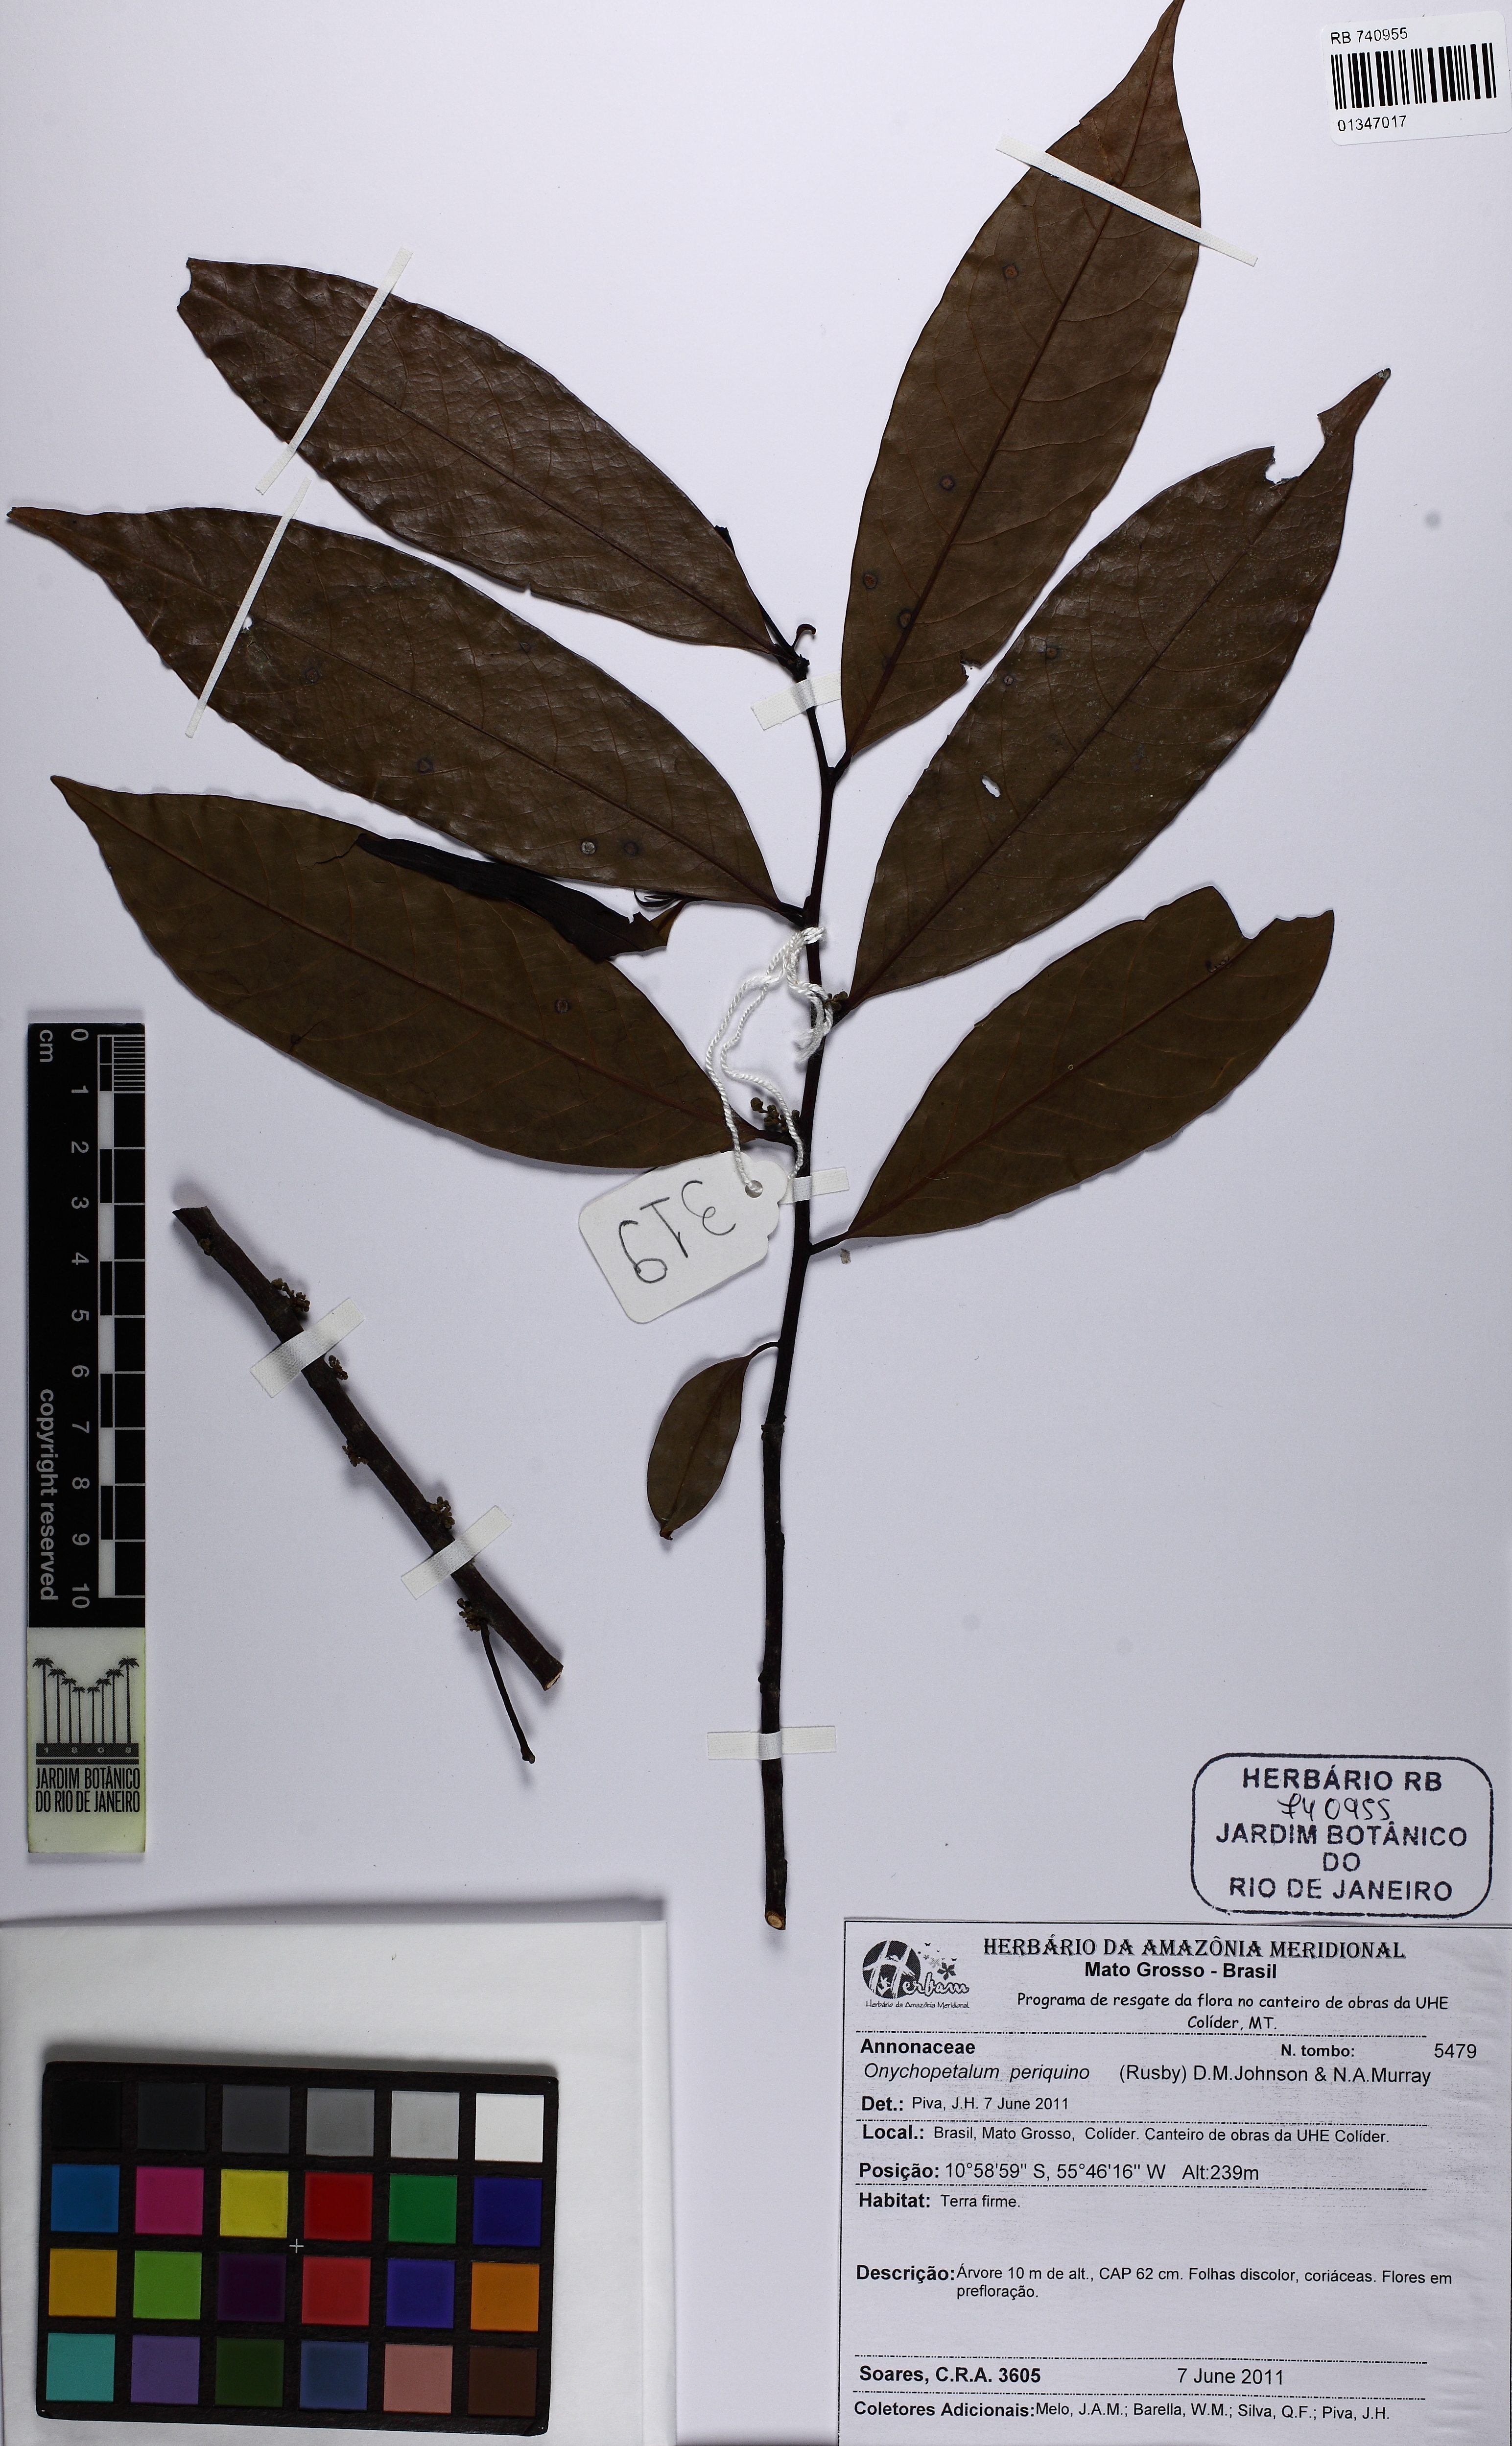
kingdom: Plantae
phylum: Tracheophyta
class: Magnoliopsida
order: Magnoliales
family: Annonaceae
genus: Onychopetalum
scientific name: Onychopetalum periquino
